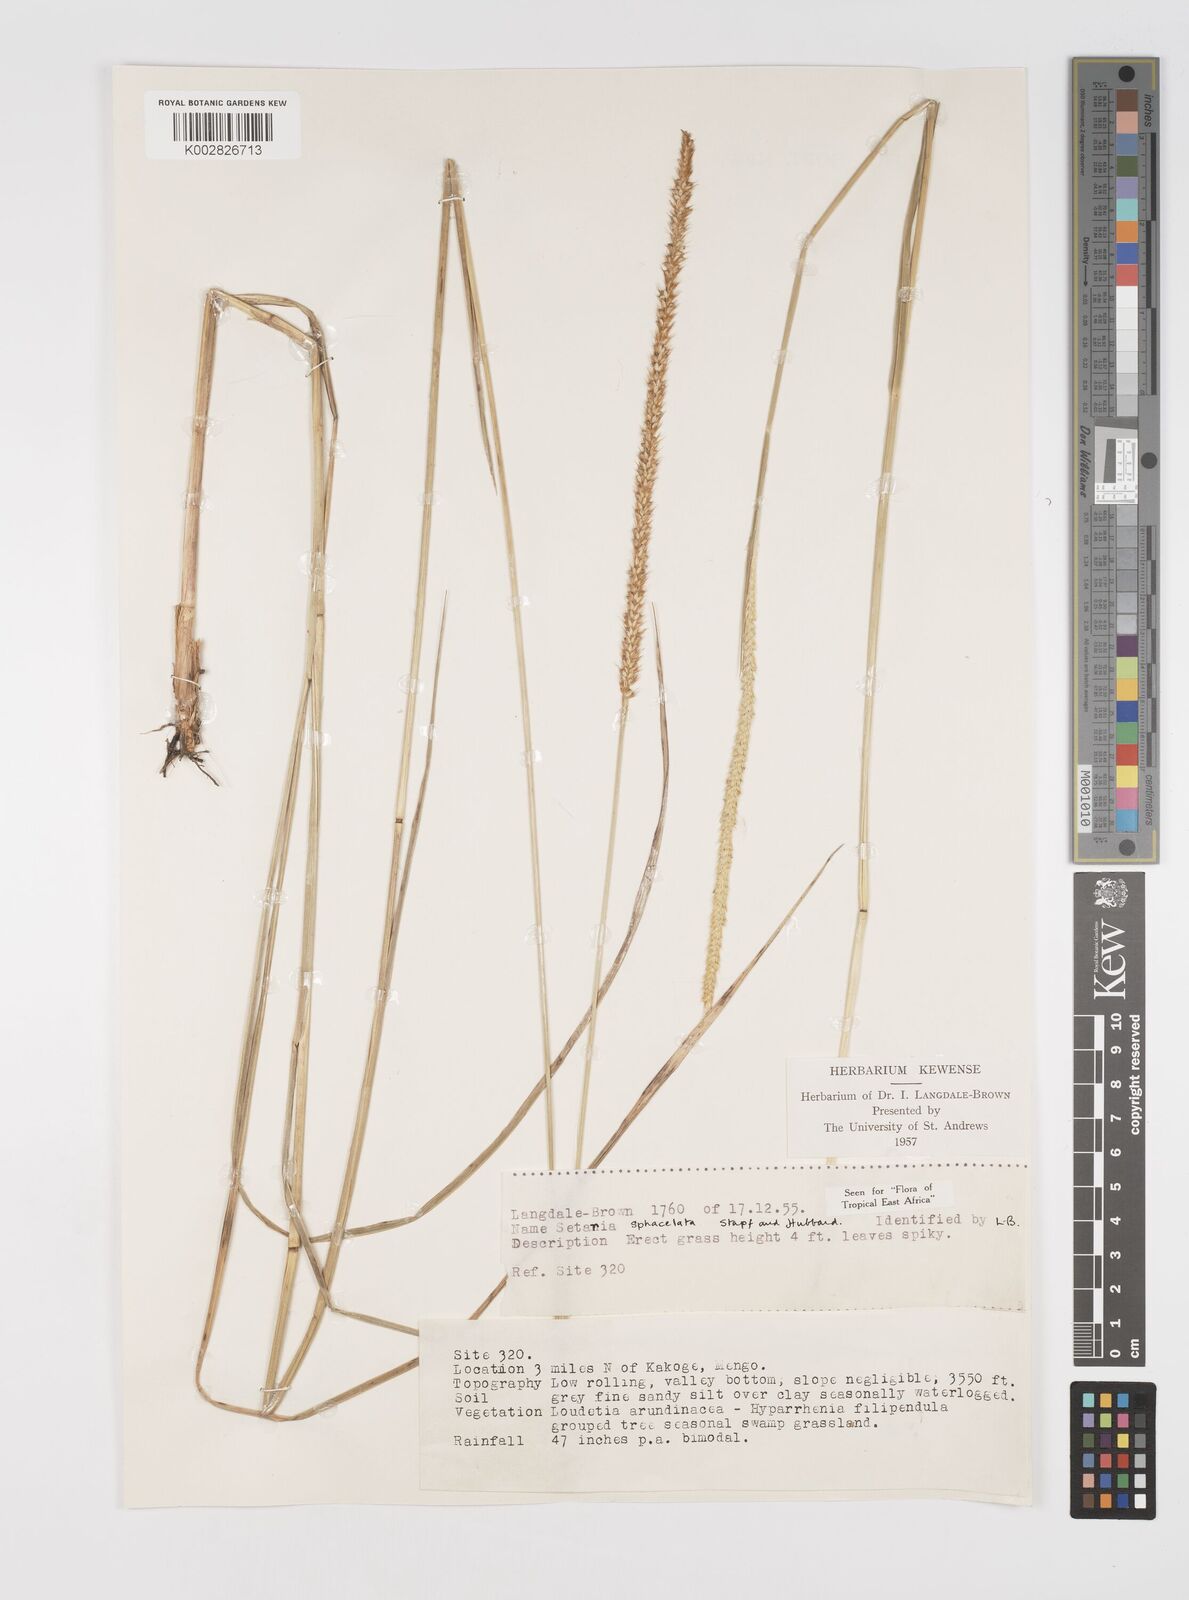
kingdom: Plantae
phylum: Tracheophyta
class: Liliopsida
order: Poales
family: Poaceae
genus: Setaria
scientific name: Setaria sphacelata
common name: African bristlegrass
